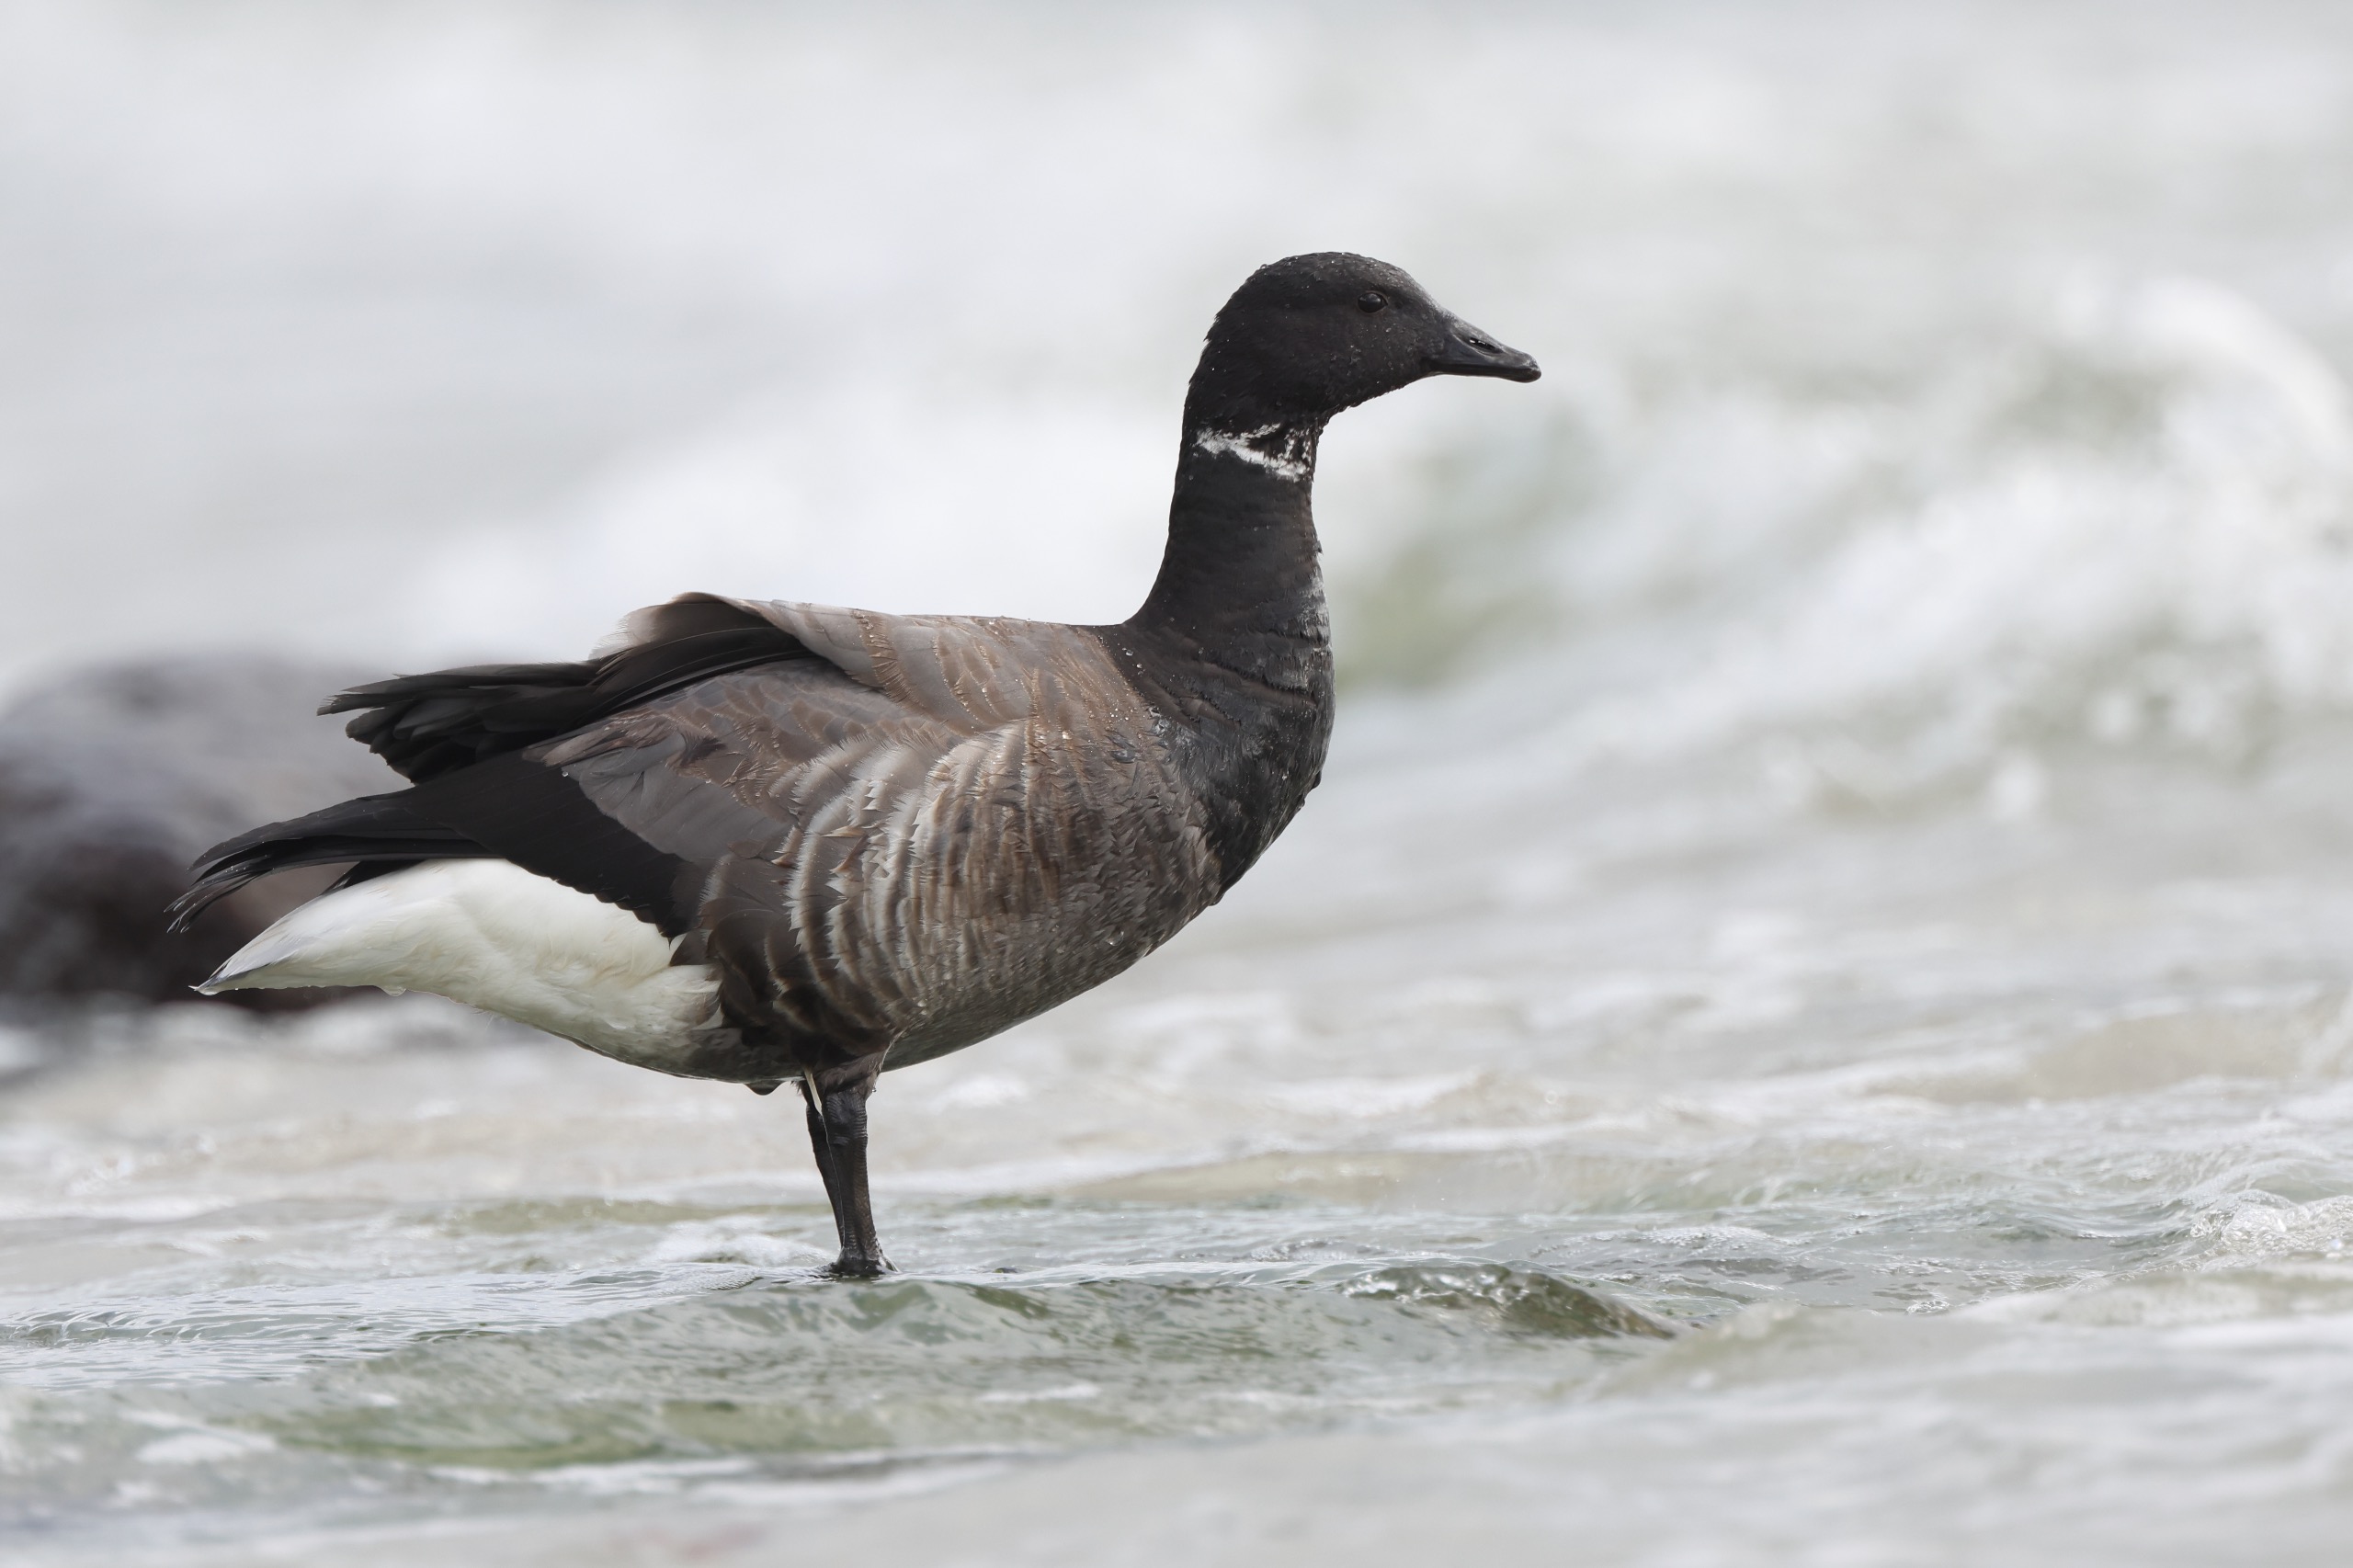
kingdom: Animalia
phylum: Chordata
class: Aves
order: Anseriformes
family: Anatidae
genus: Branta
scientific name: Branta bernicla
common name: Knortegås
